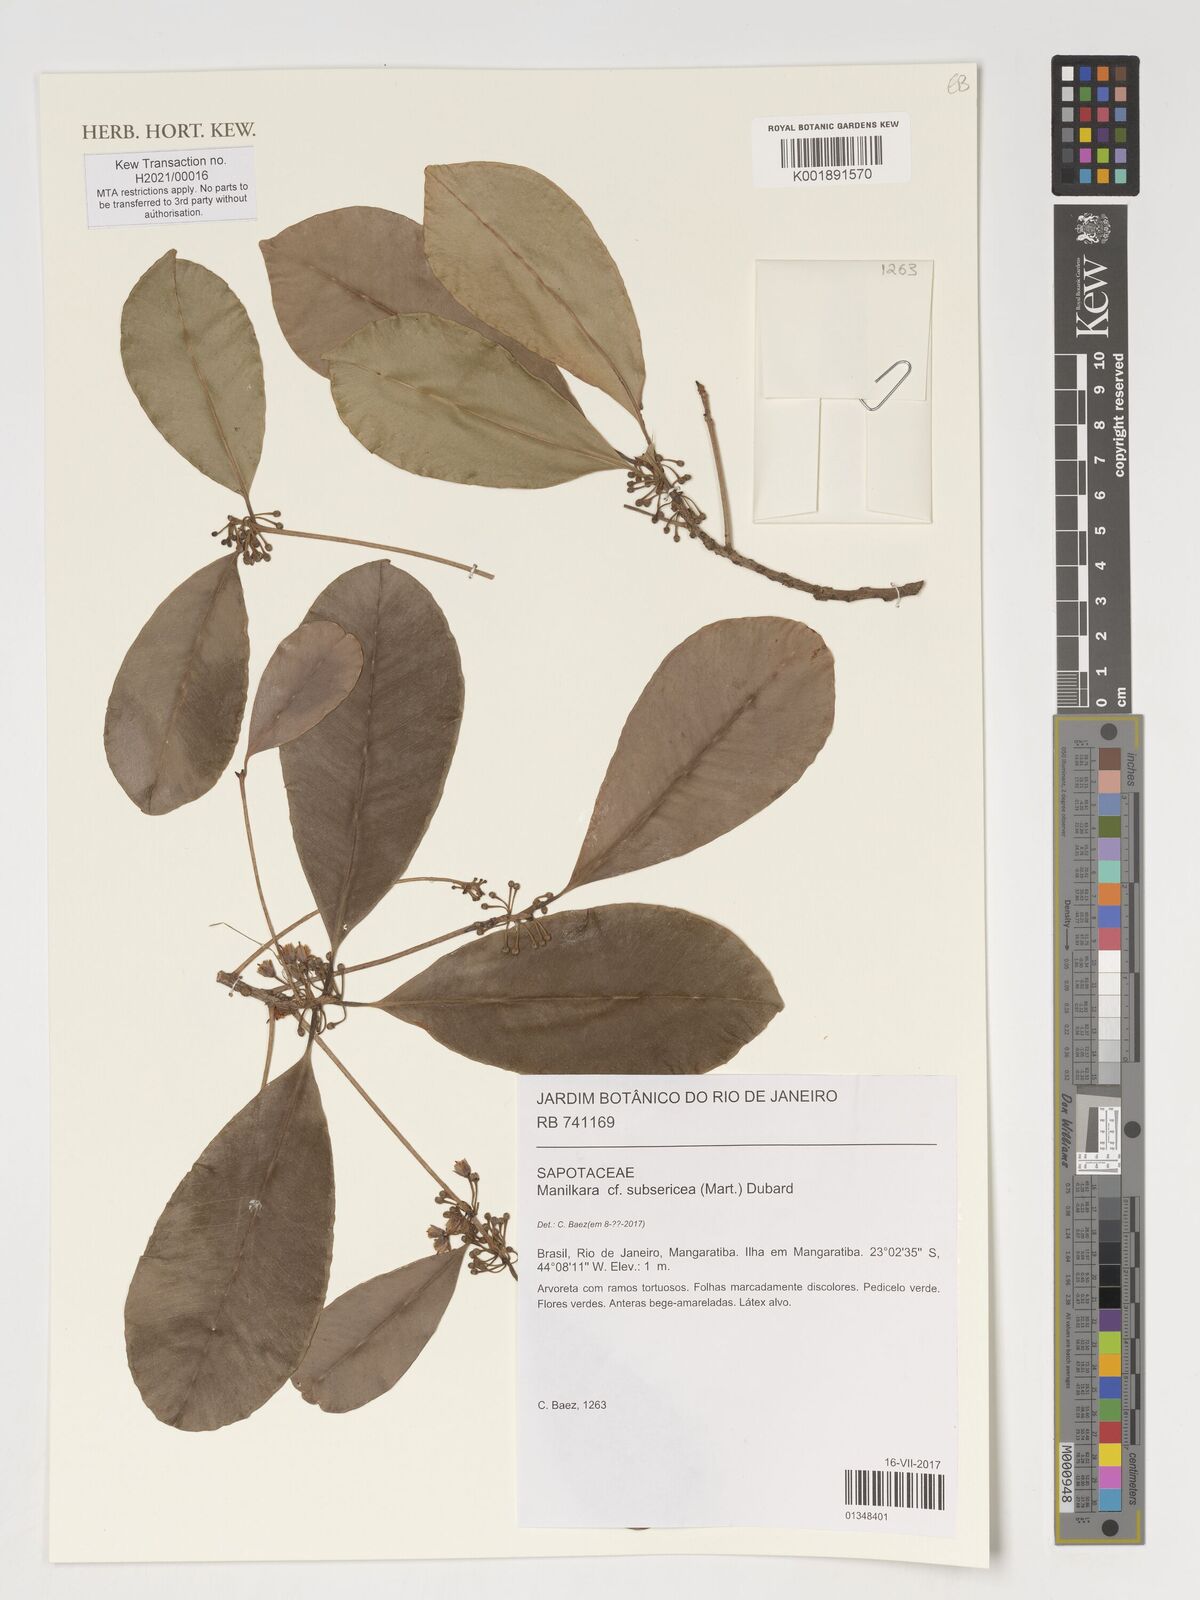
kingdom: Plantae
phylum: Tracheophyta
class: Magnoliopsida
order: Ericales
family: Sapotaceae
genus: Manilkara
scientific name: Manilkara subsericea
